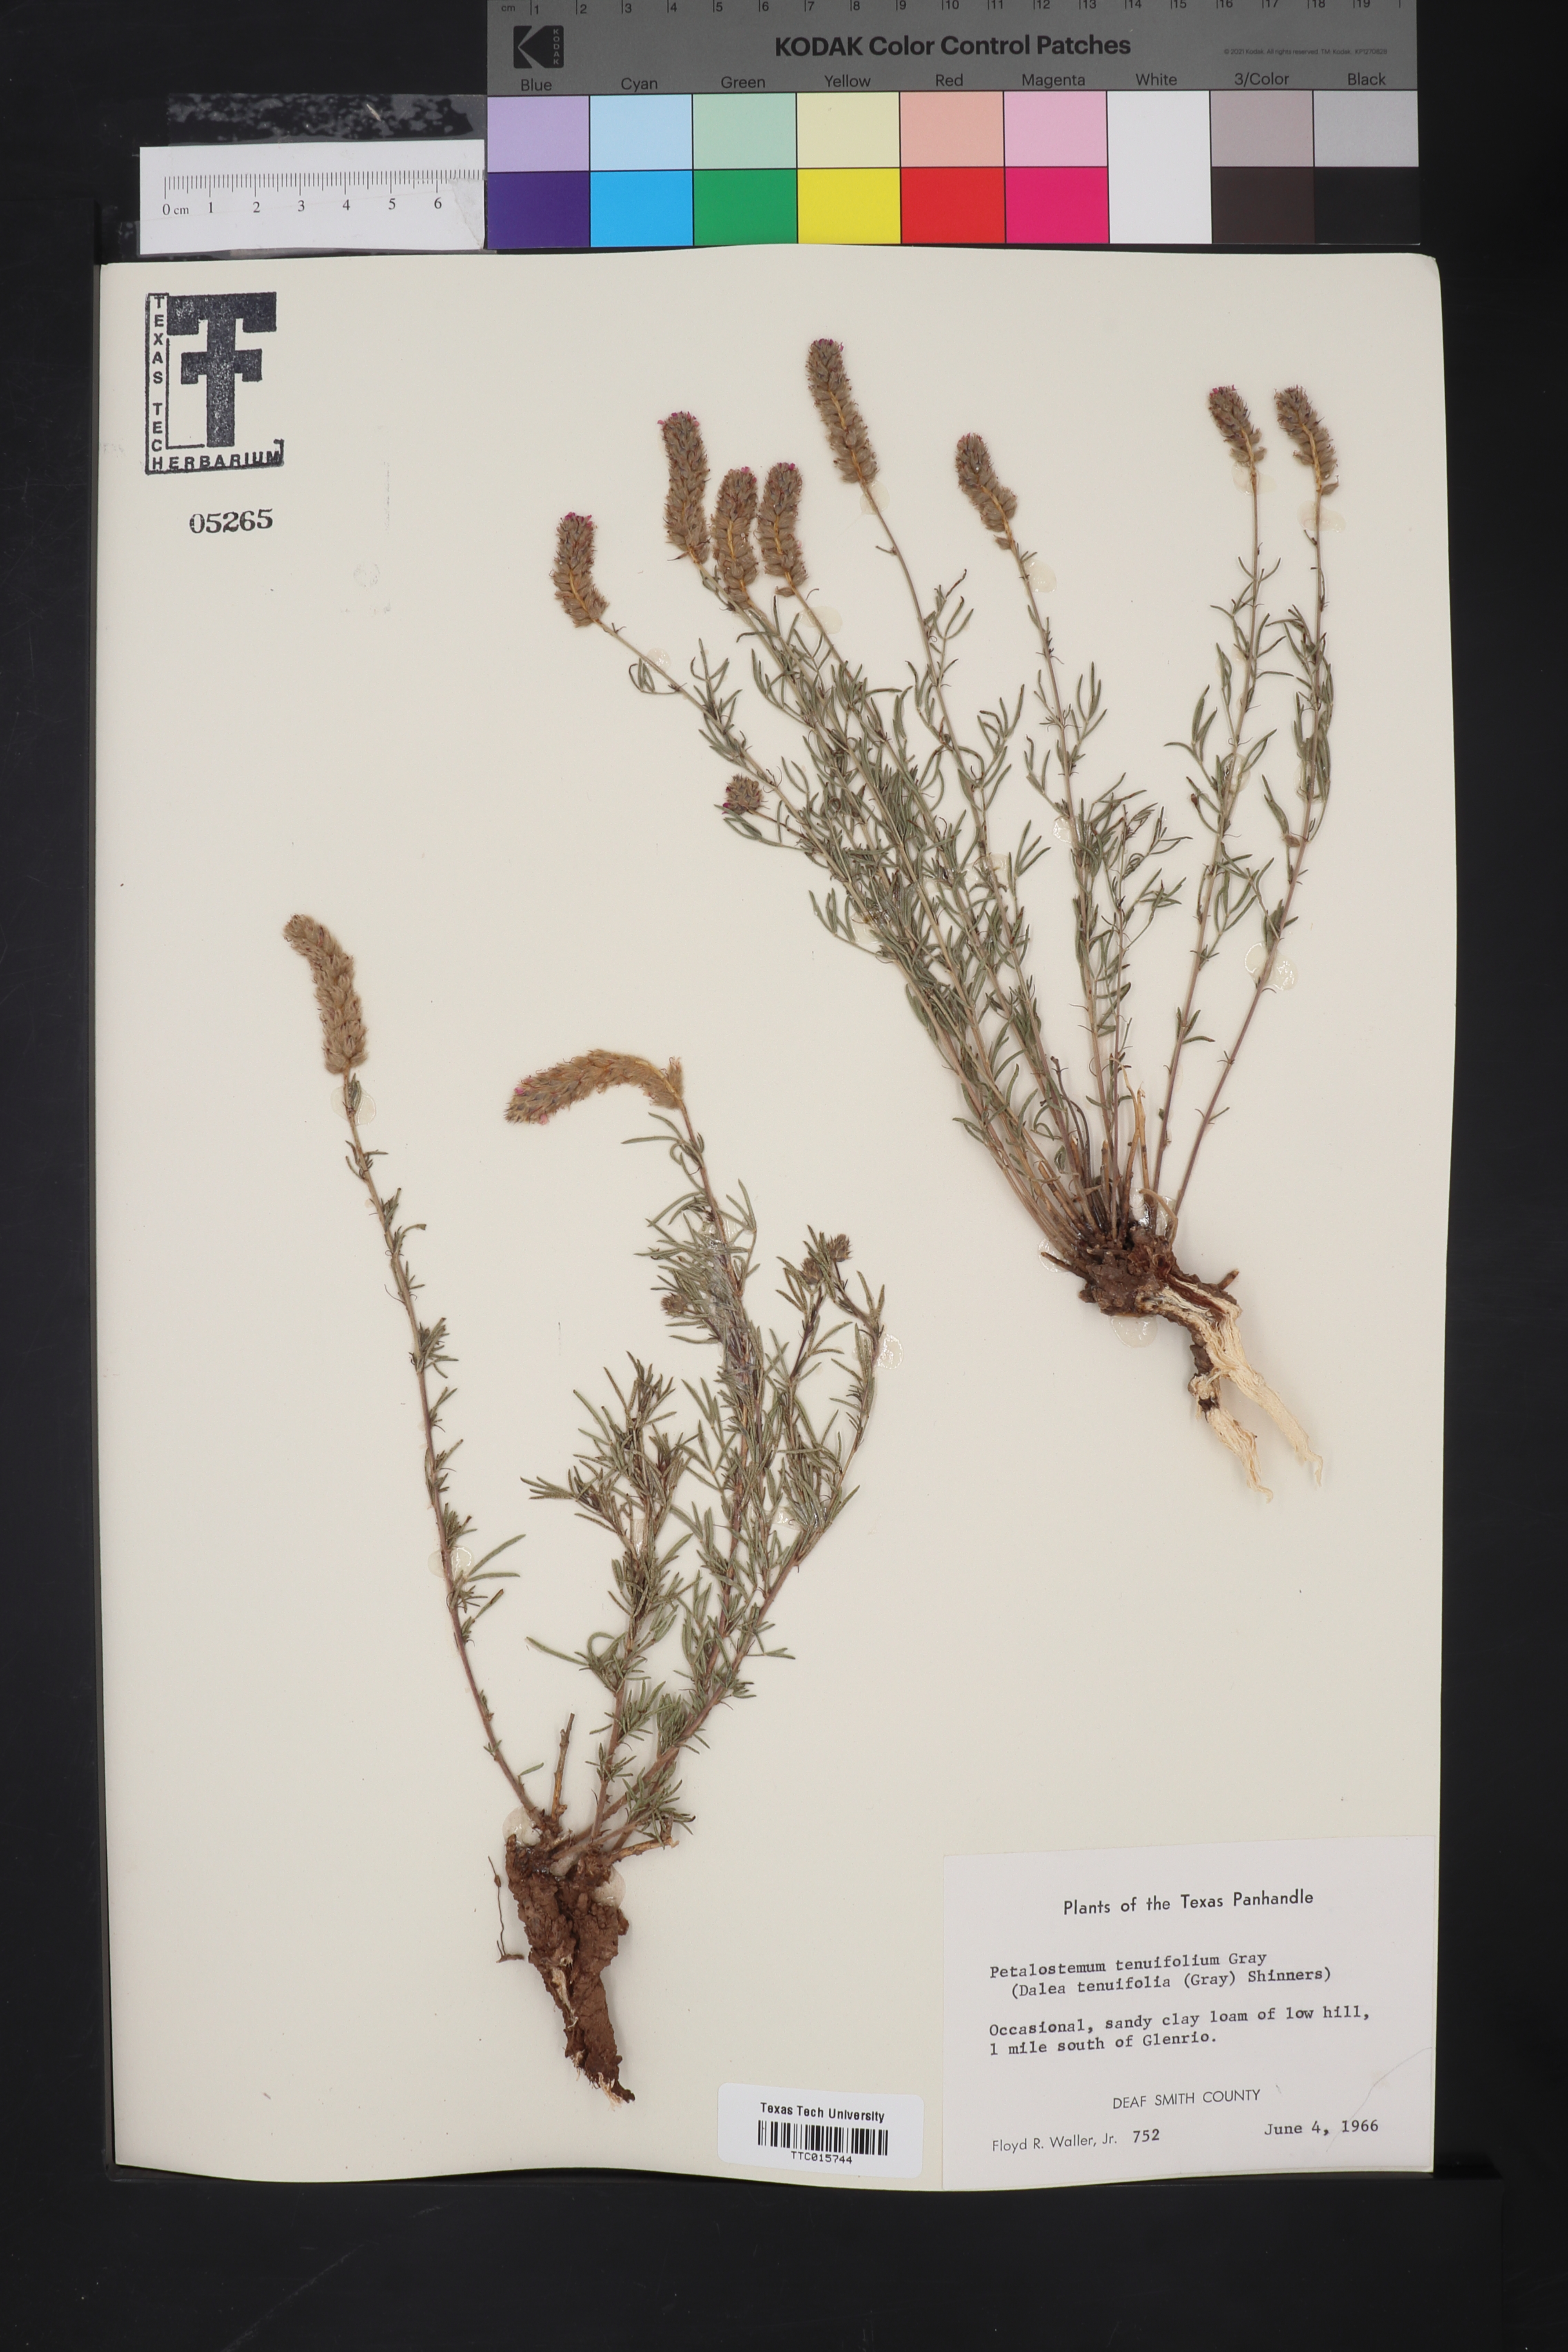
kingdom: Plantae
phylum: Tracheophyta
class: Magnoliopsida
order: Fabales
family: Fabaceae
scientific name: Fabaceae
